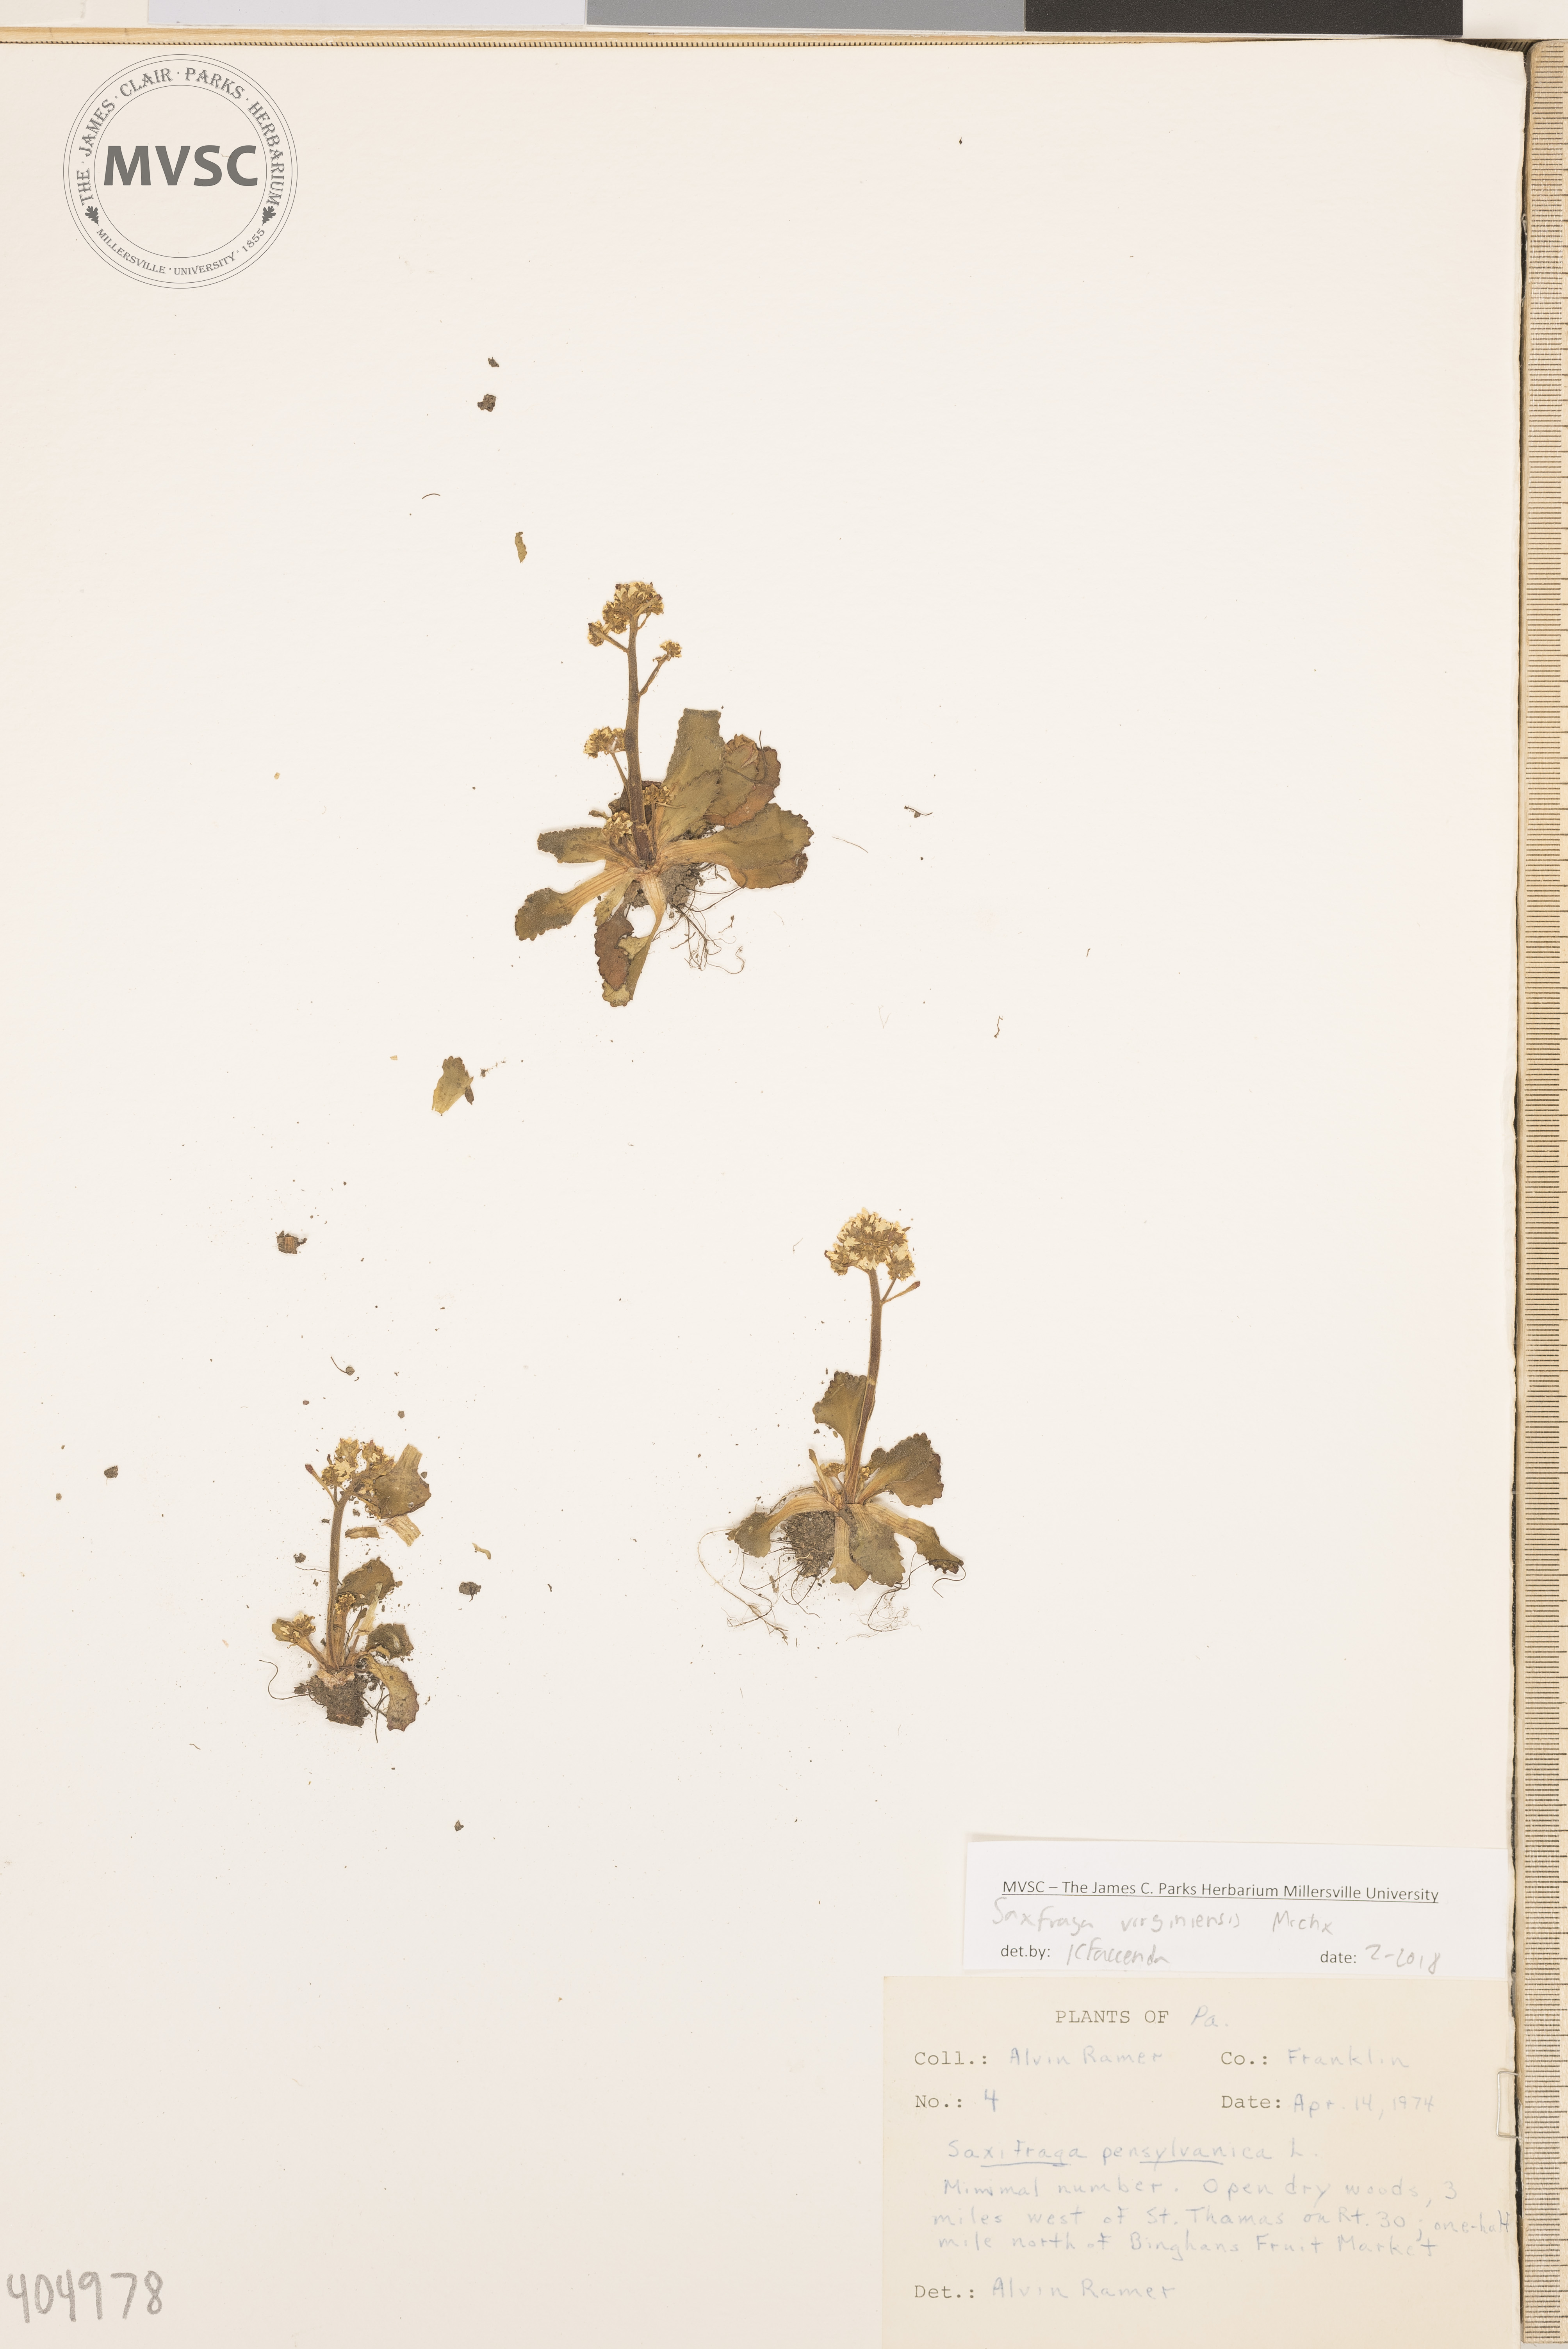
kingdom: Plantae
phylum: Tracheophyta
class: Magnoliopsida
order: Saxifragales
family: Saxifragaceae
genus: Micranthes
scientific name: Micranthes virginiensis
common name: Early saxifrage
